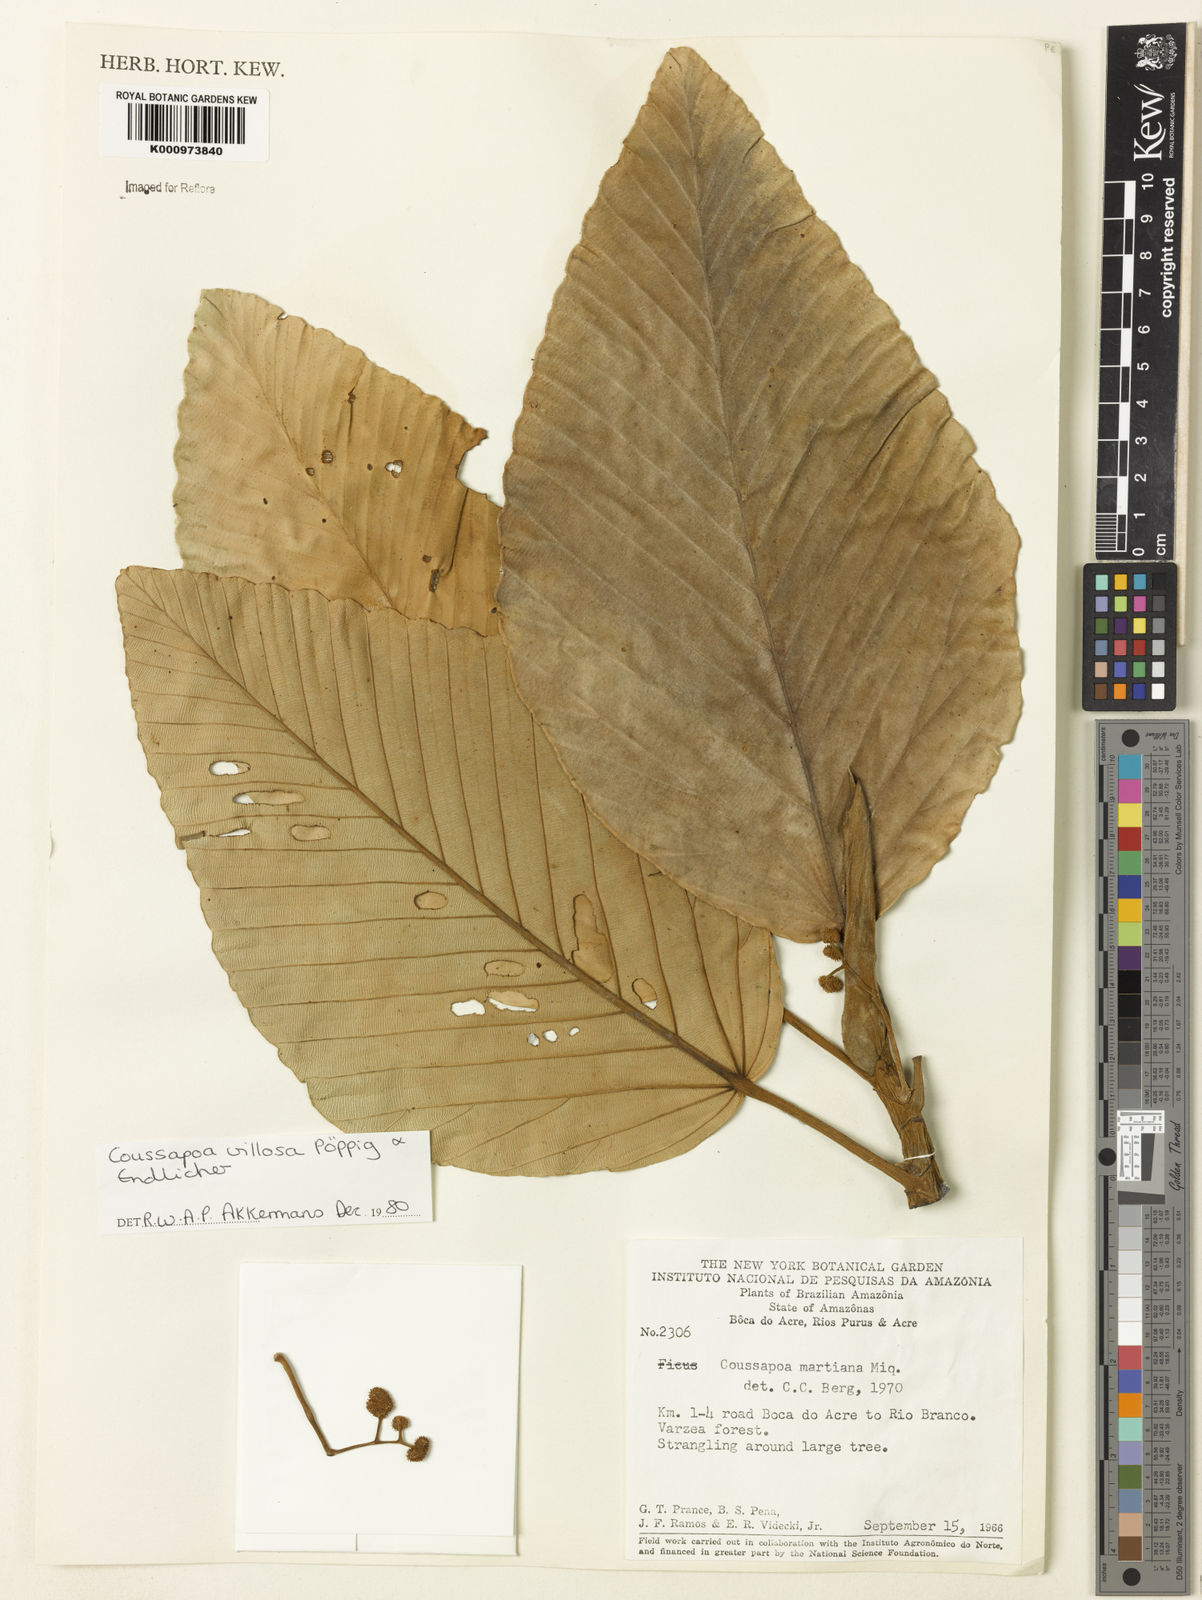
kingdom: Plantae
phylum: Tracheophyta
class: Magnoliopsida
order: Rosales
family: Urticaceae
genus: Coussapoa
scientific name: Coussapoa villosa
